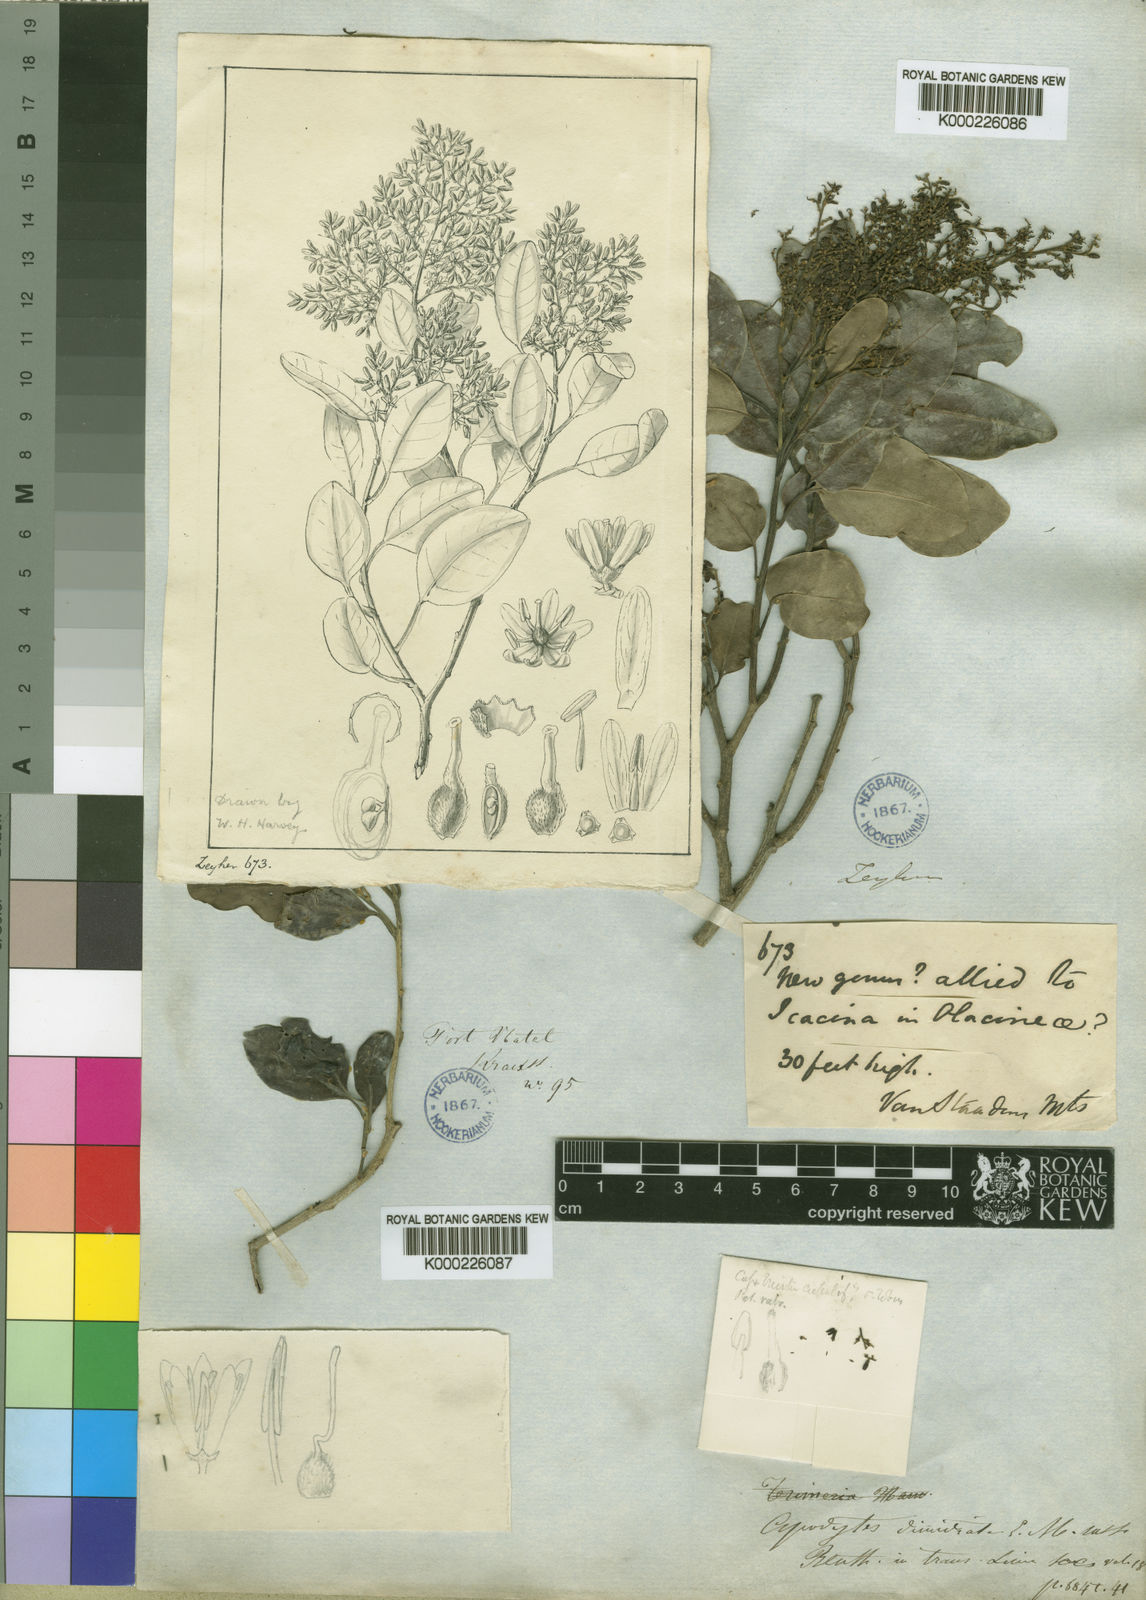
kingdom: Plantae
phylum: Tracheophyta
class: Magnoliopsida
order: Metteniusales
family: Metteniusaceae
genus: Apodytes
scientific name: Apodytes dimidiata
